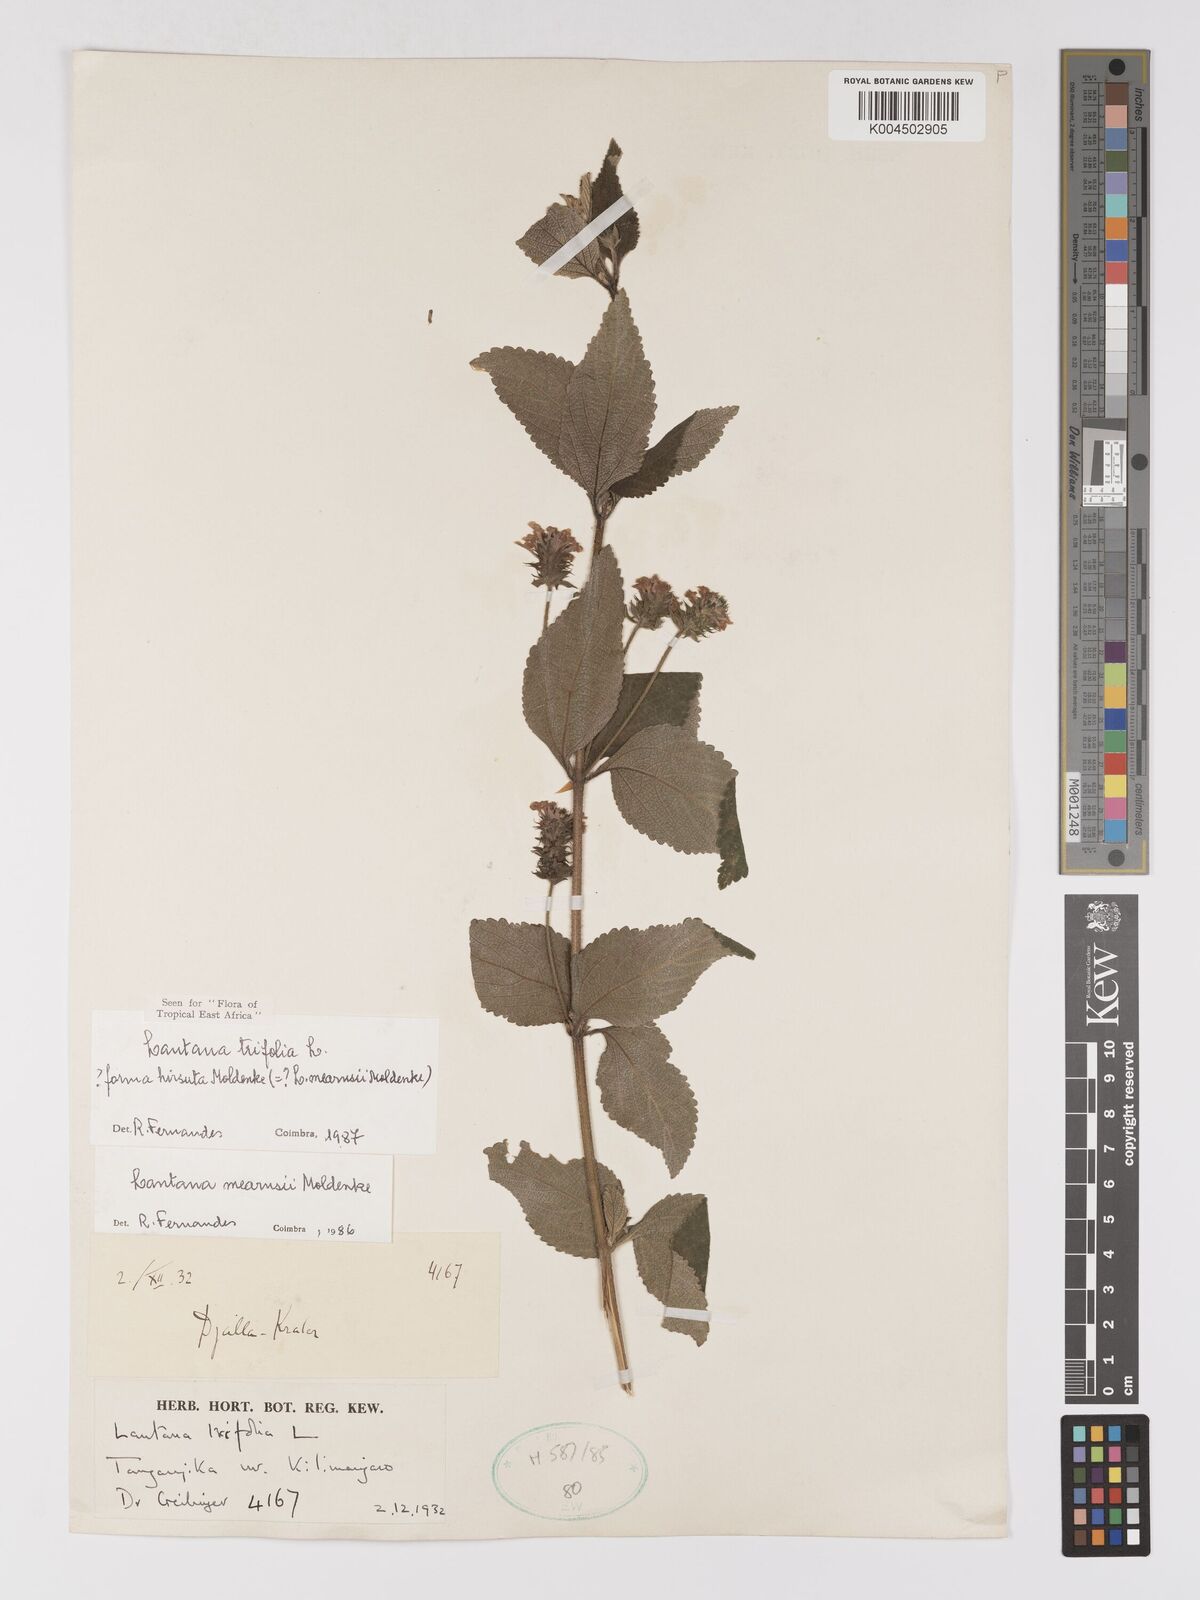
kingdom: Plantae
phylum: Tracheophyta
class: Magnoliopsida
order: Lamiales
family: Verbenaceae
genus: Lantana
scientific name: Lantana trifolia
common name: Sweet-sage
